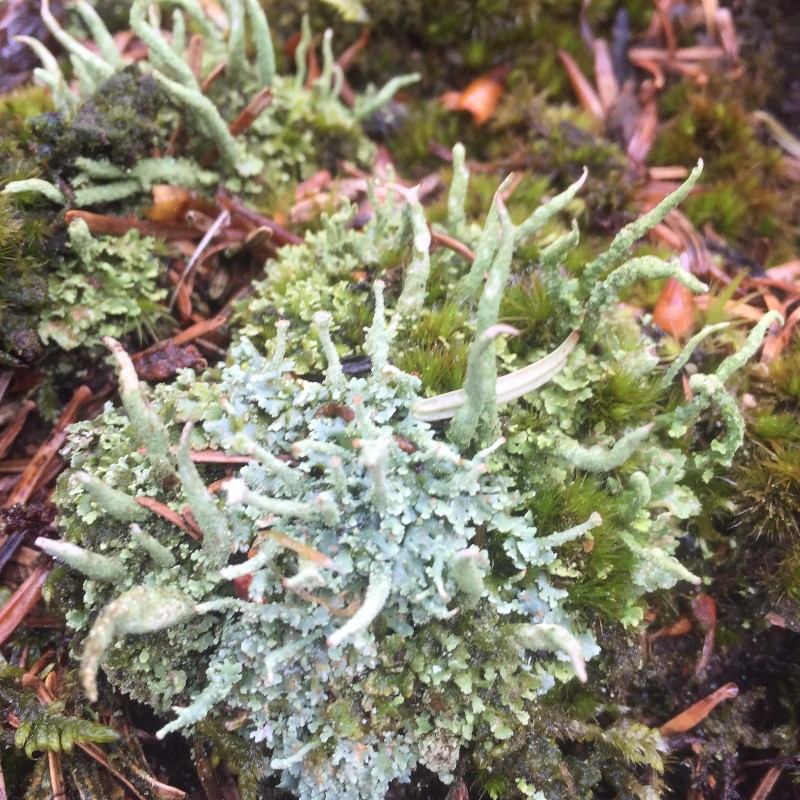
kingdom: Fungi
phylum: Ascomycota
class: Lecanoromycetes
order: Lecanorales
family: Cladoniaceae
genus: Cladonia
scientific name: Cladonia polydactyla
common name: vifte-bægerlav
